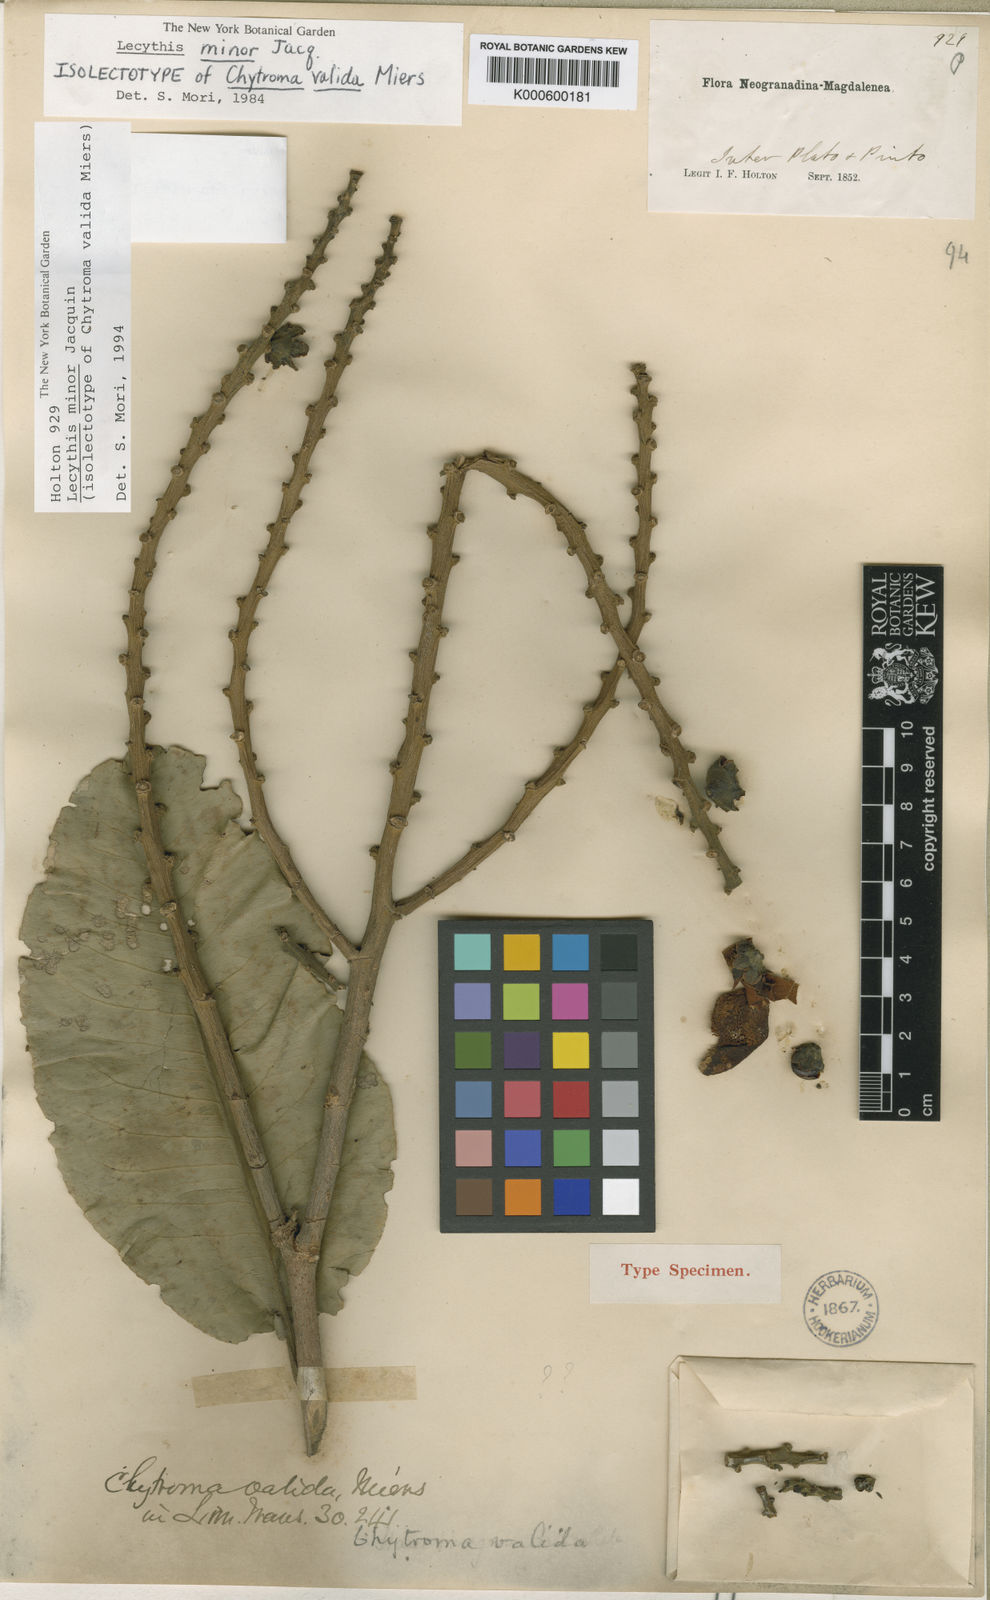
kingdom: Plantae
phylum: Tracheophyta
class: Magnoliopsida
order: Ericales
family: Lecythidaceae
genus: Lecythis
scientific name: Lecythis minor
